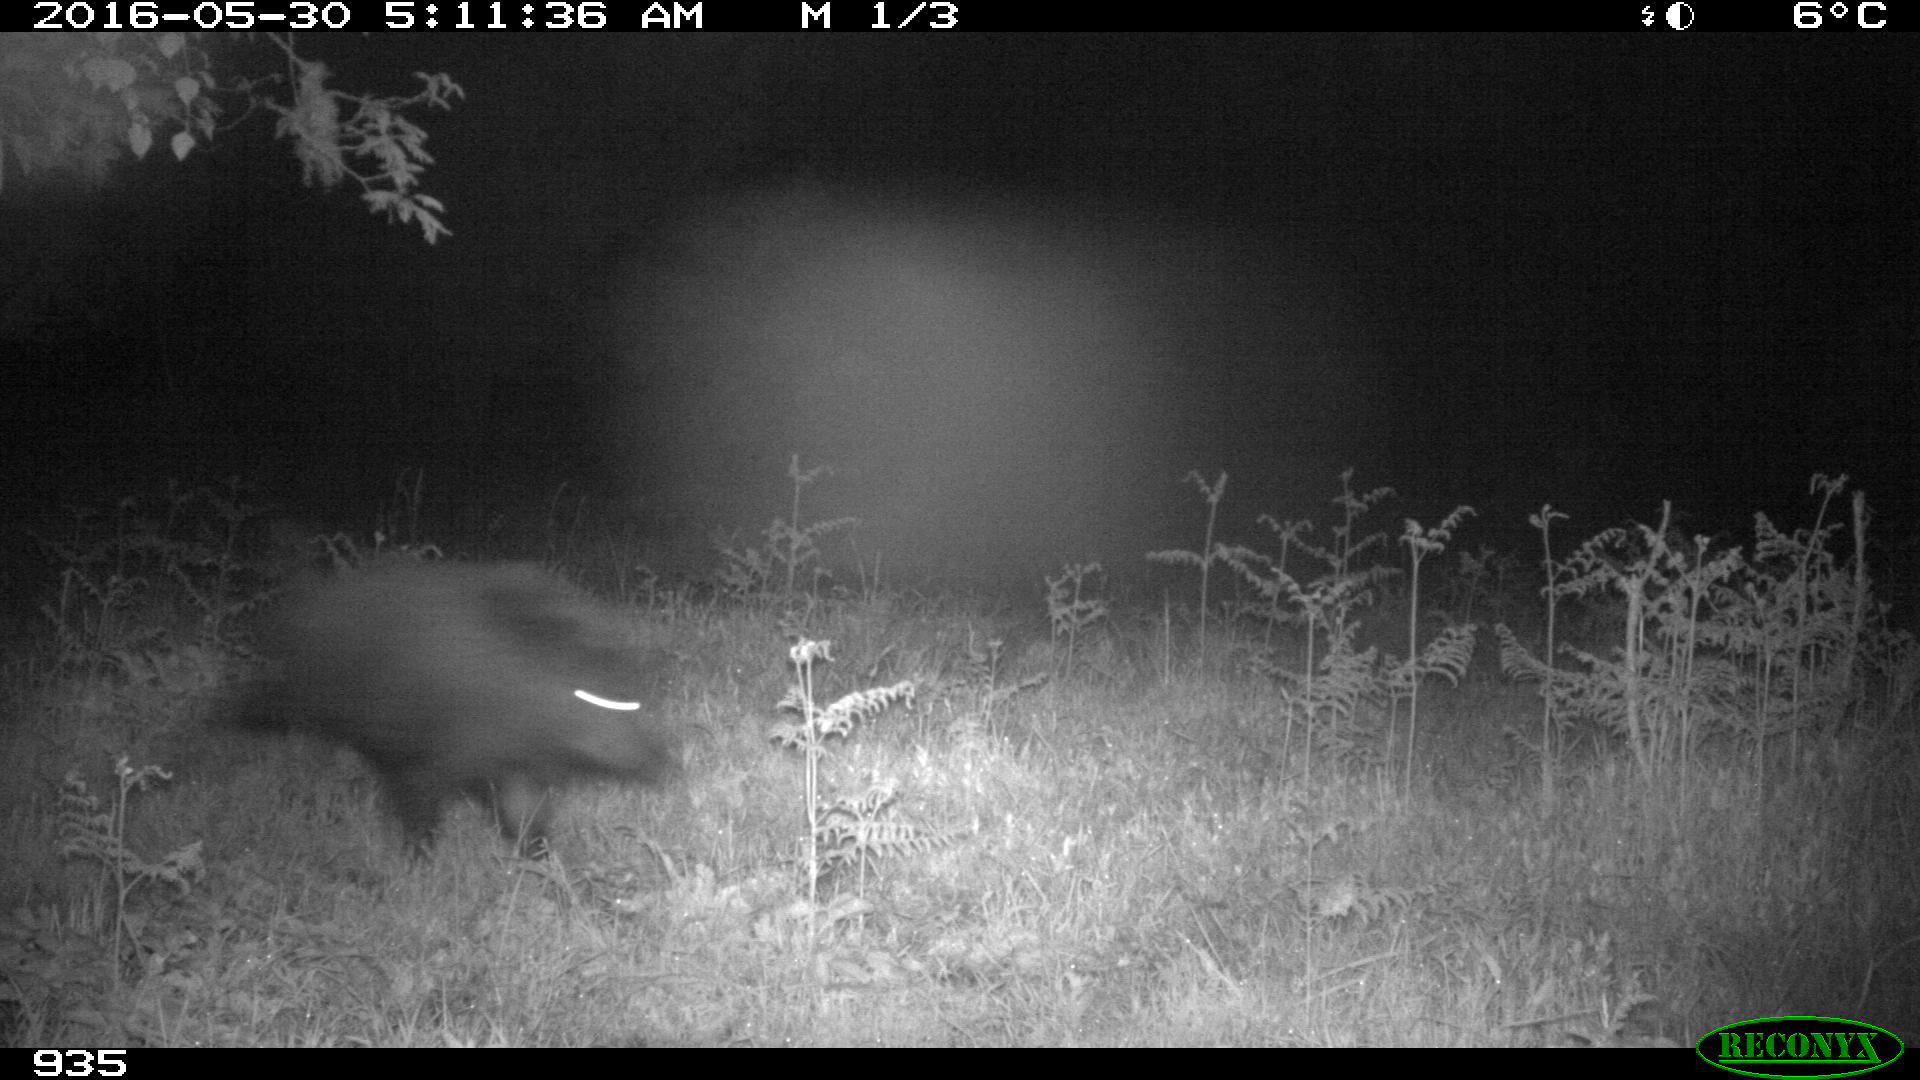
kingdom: Animalia
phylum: Chordata
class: Mammalia
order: Artiodactyla
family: Suidae
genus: Sus
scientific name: Sus scrofa
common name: Wild boar
